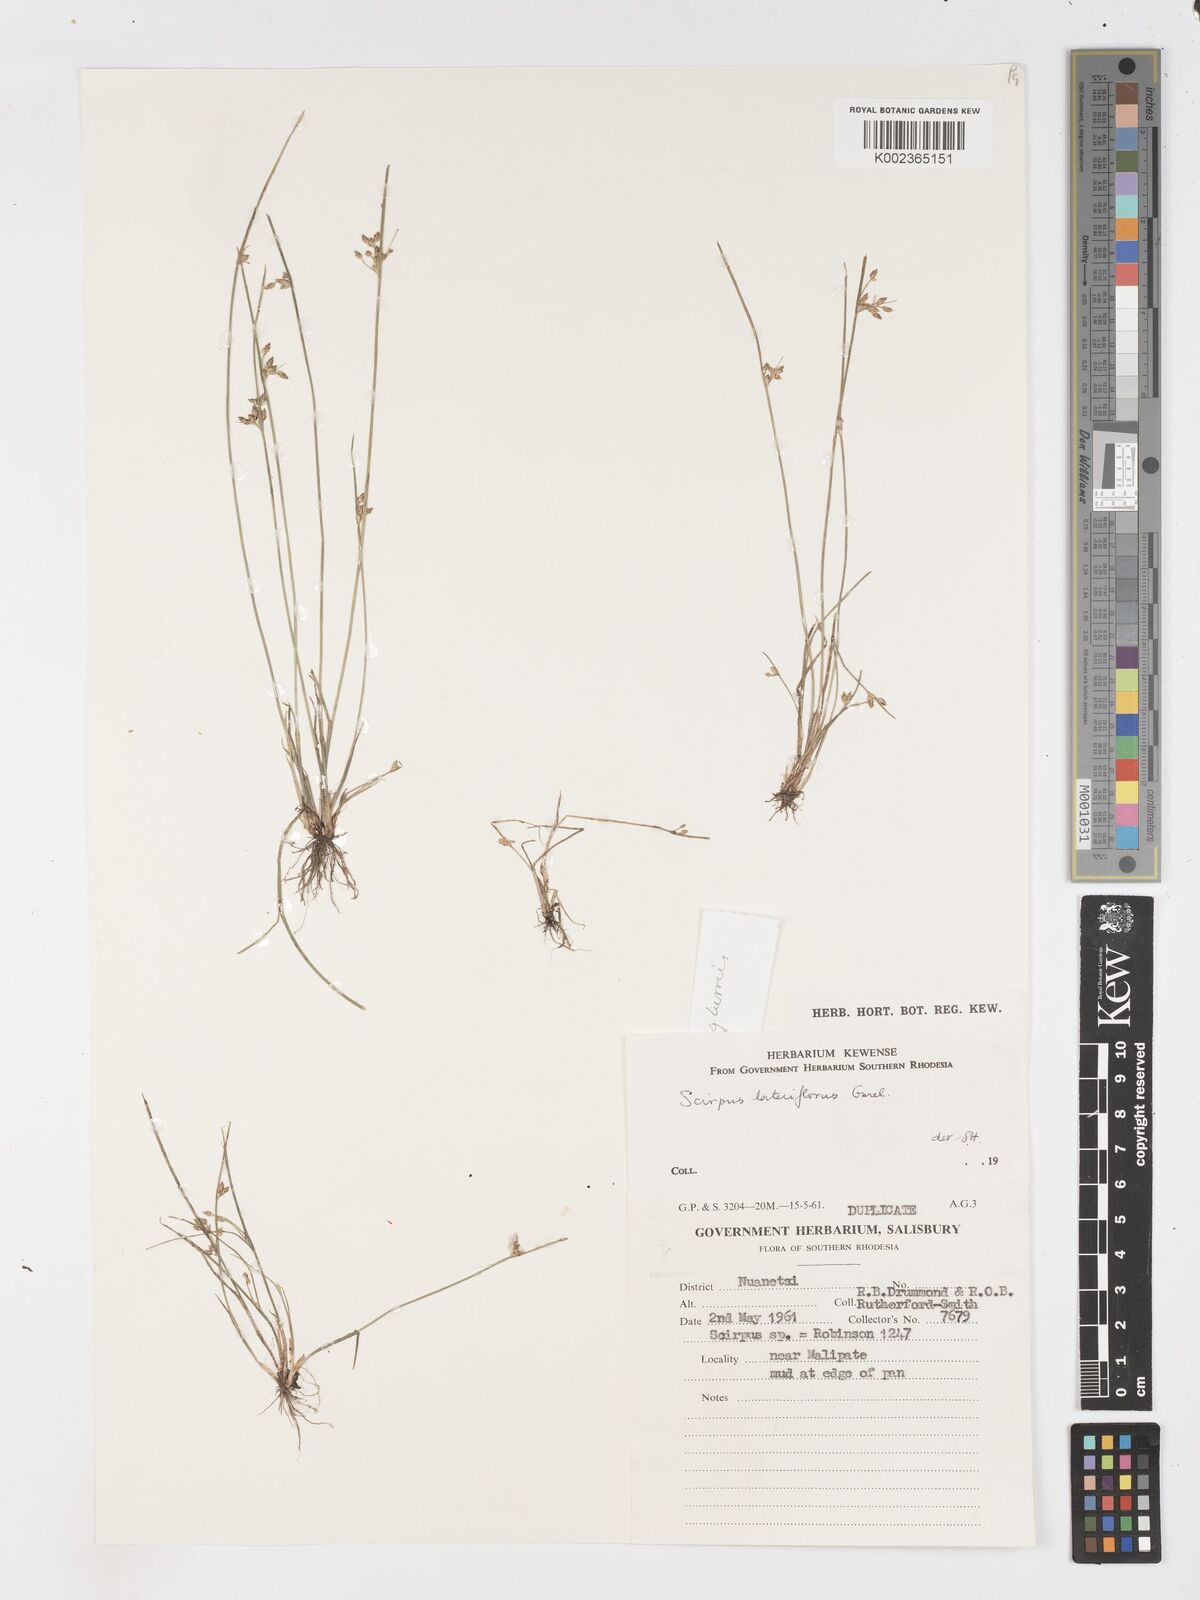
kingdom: Plantae
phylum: Tracheophyta
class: Liliopsida
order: Poales
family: Cyperaceae
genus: Schoenoplectiella
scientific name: Schoenoplectiella microglumis
